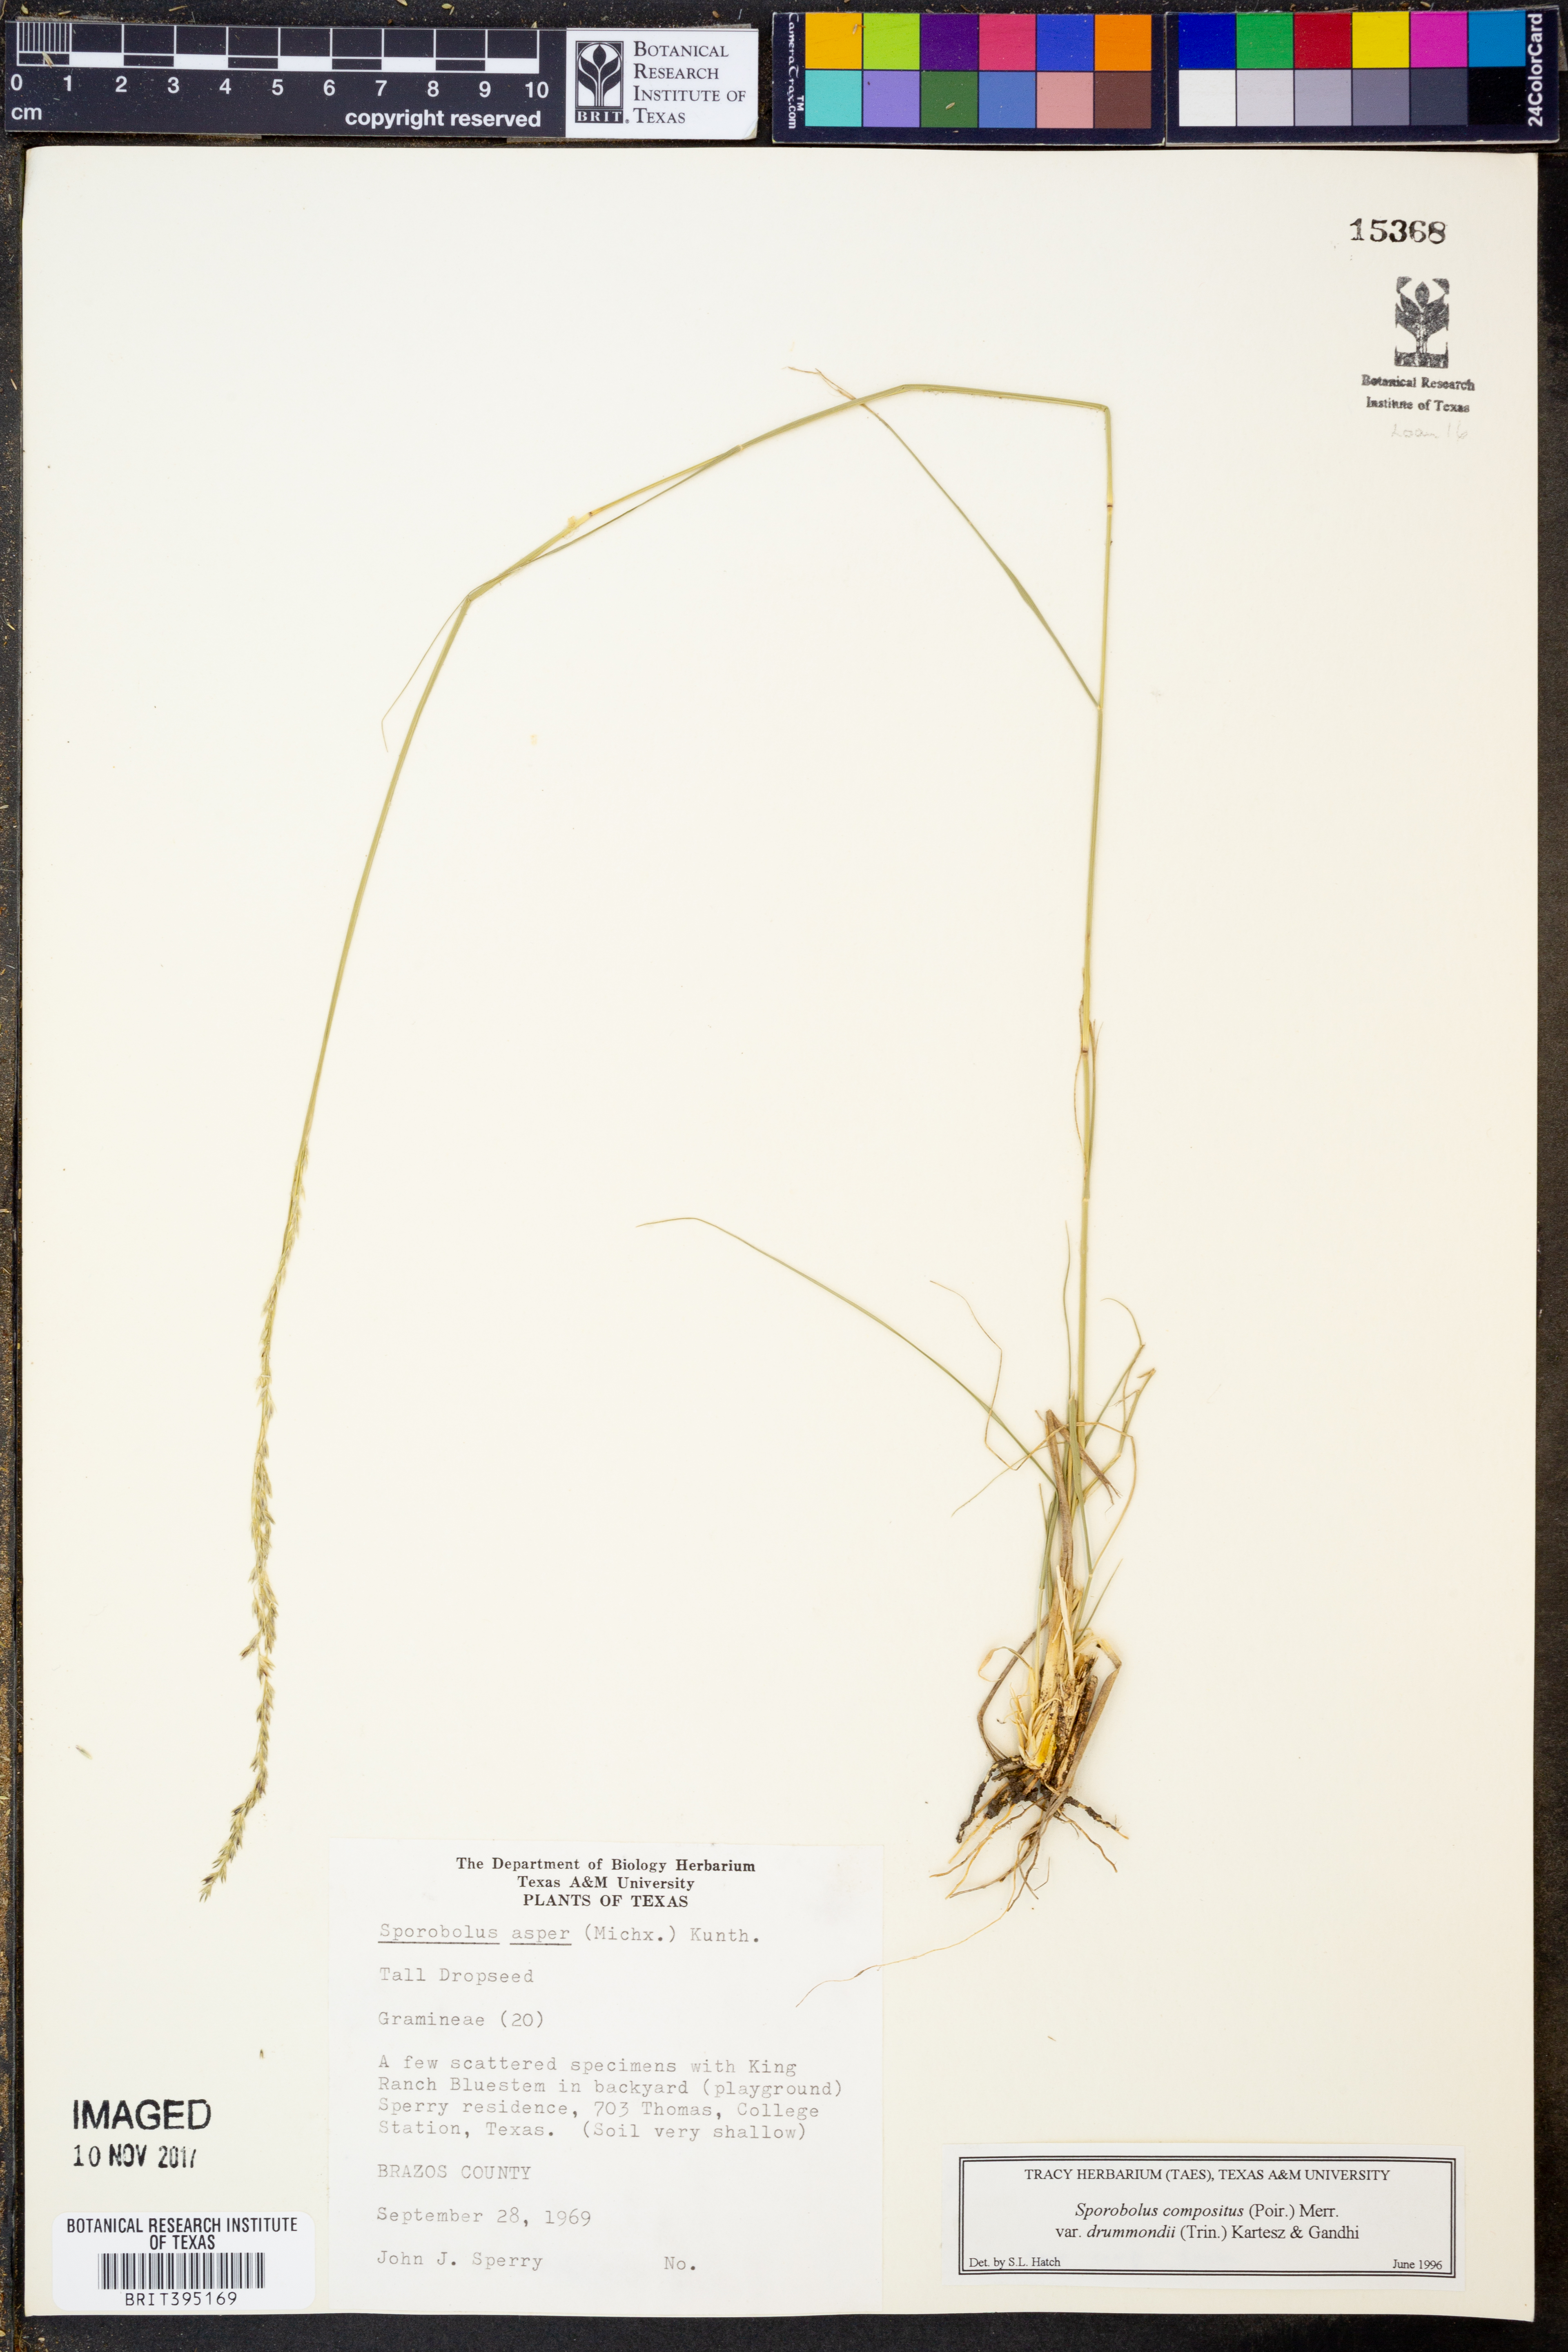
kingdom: Plantae
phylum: Tracheophyta
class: Liliopsida
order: Poales
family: Poaceae
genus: Sporobolus
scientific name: Sporobolus compositus
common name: Rough dropseed
